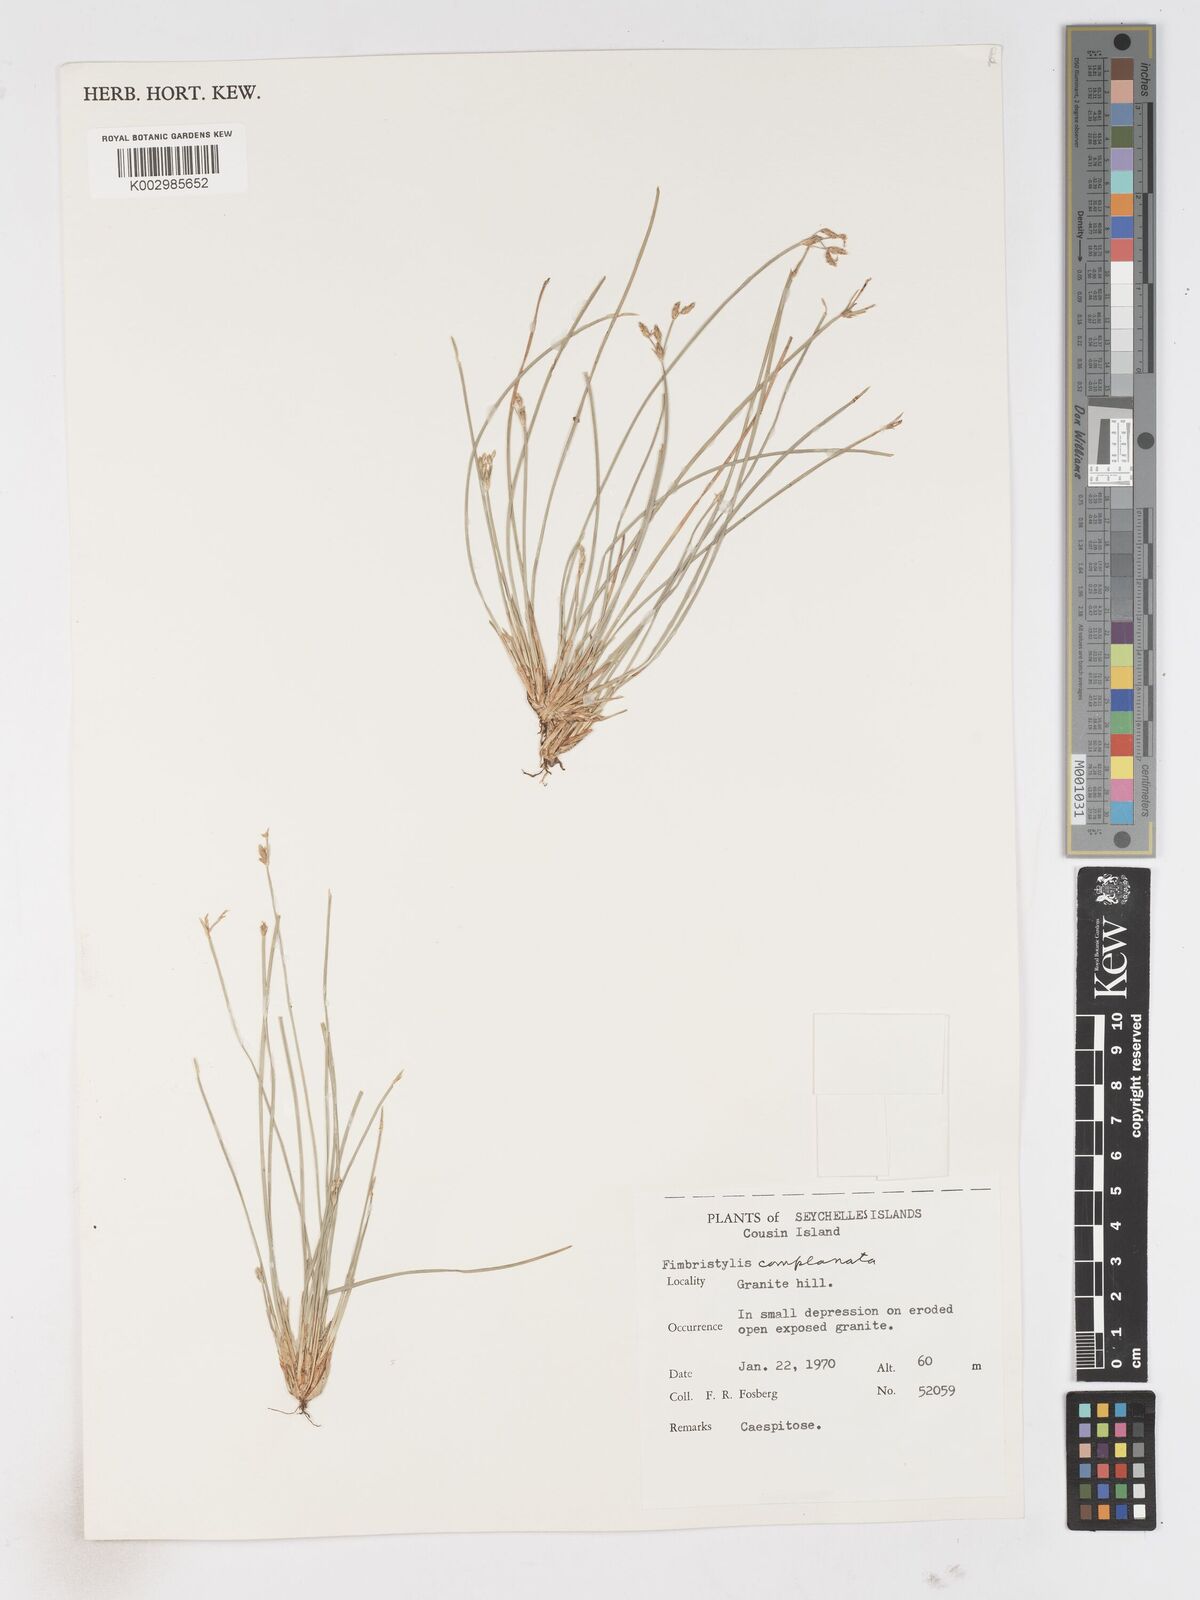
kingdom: Plantae
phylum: Tracheophyta
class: Liliopsida
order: Poales
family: Cyperaceae
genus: Fimbristylis
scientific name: Fimbristylis complanata
